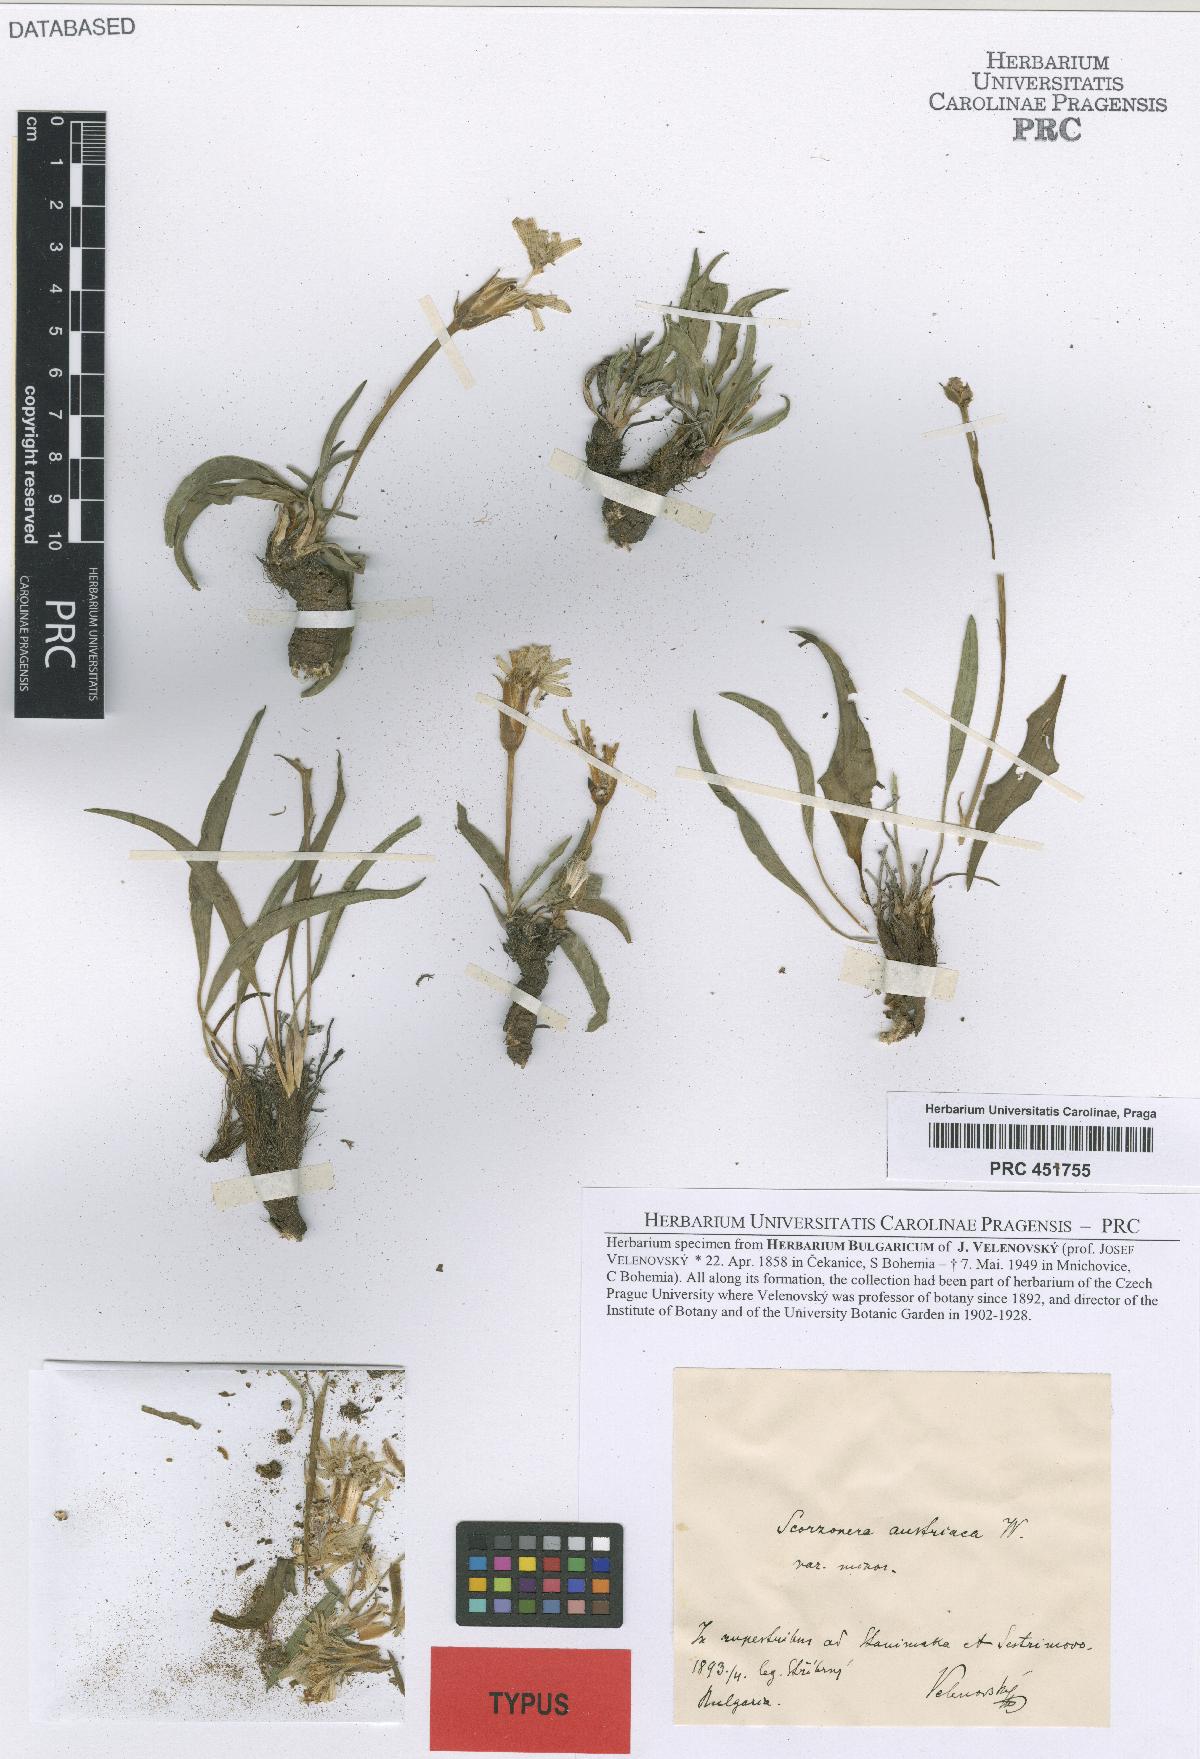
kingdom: Plantae
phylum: Tracheophyta
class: Magnoliopsida
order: Asterales
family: Asteraceae
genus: Scorzonera
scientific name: Scorzonera austriaca
